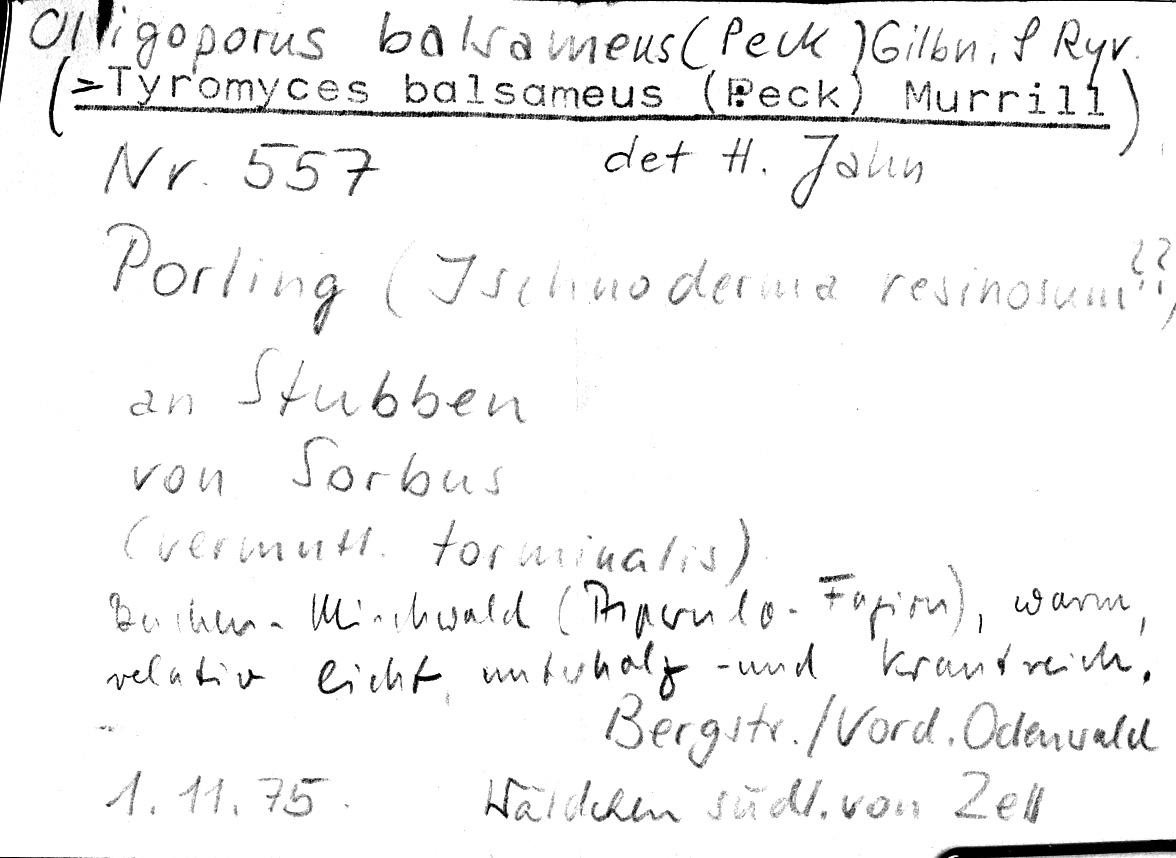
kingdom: Plantae
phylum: Tracheophyta
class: Magnoliopsida
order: Rosales
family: Rosaceae
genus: Sorbus
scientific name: Sorbus
